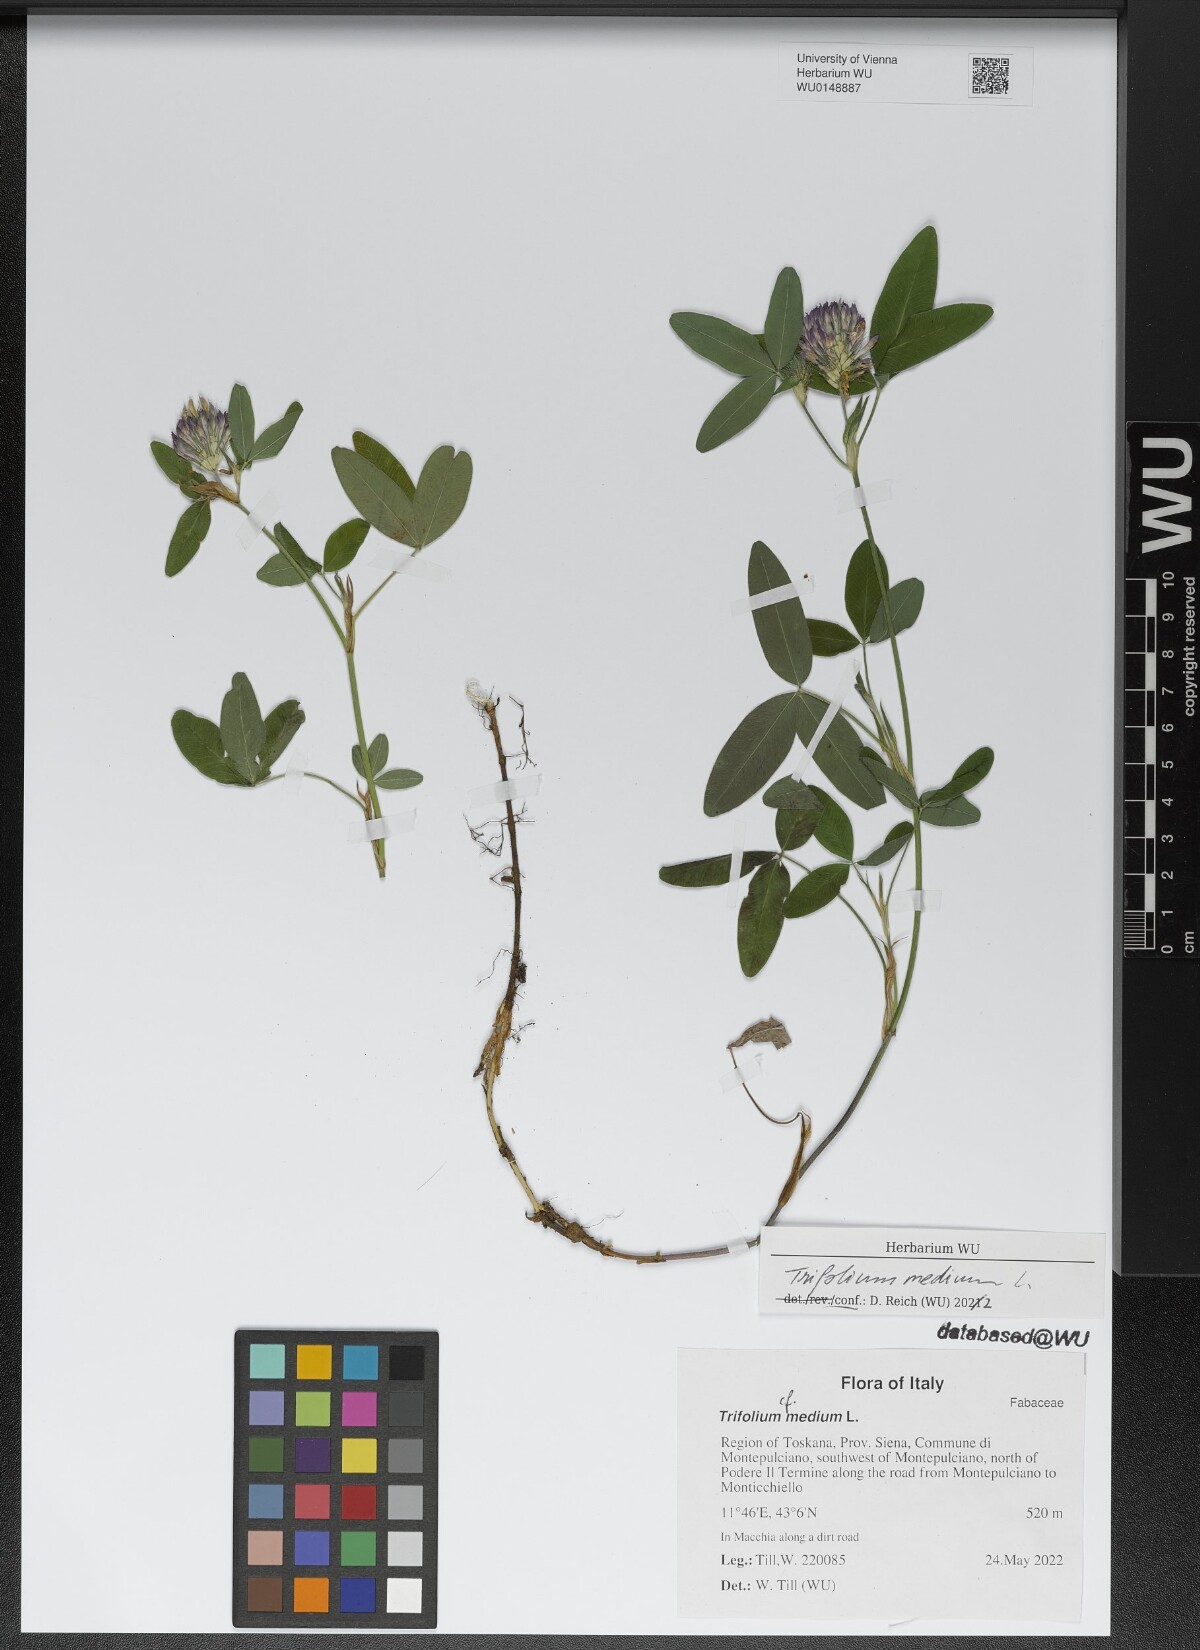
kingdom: Plantae
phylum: Tracheophyta
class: Magnoliopsida
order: Fabales
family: Fabaceae
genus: Trifolium
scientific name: Trifolium medium
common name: Zigzag clover
